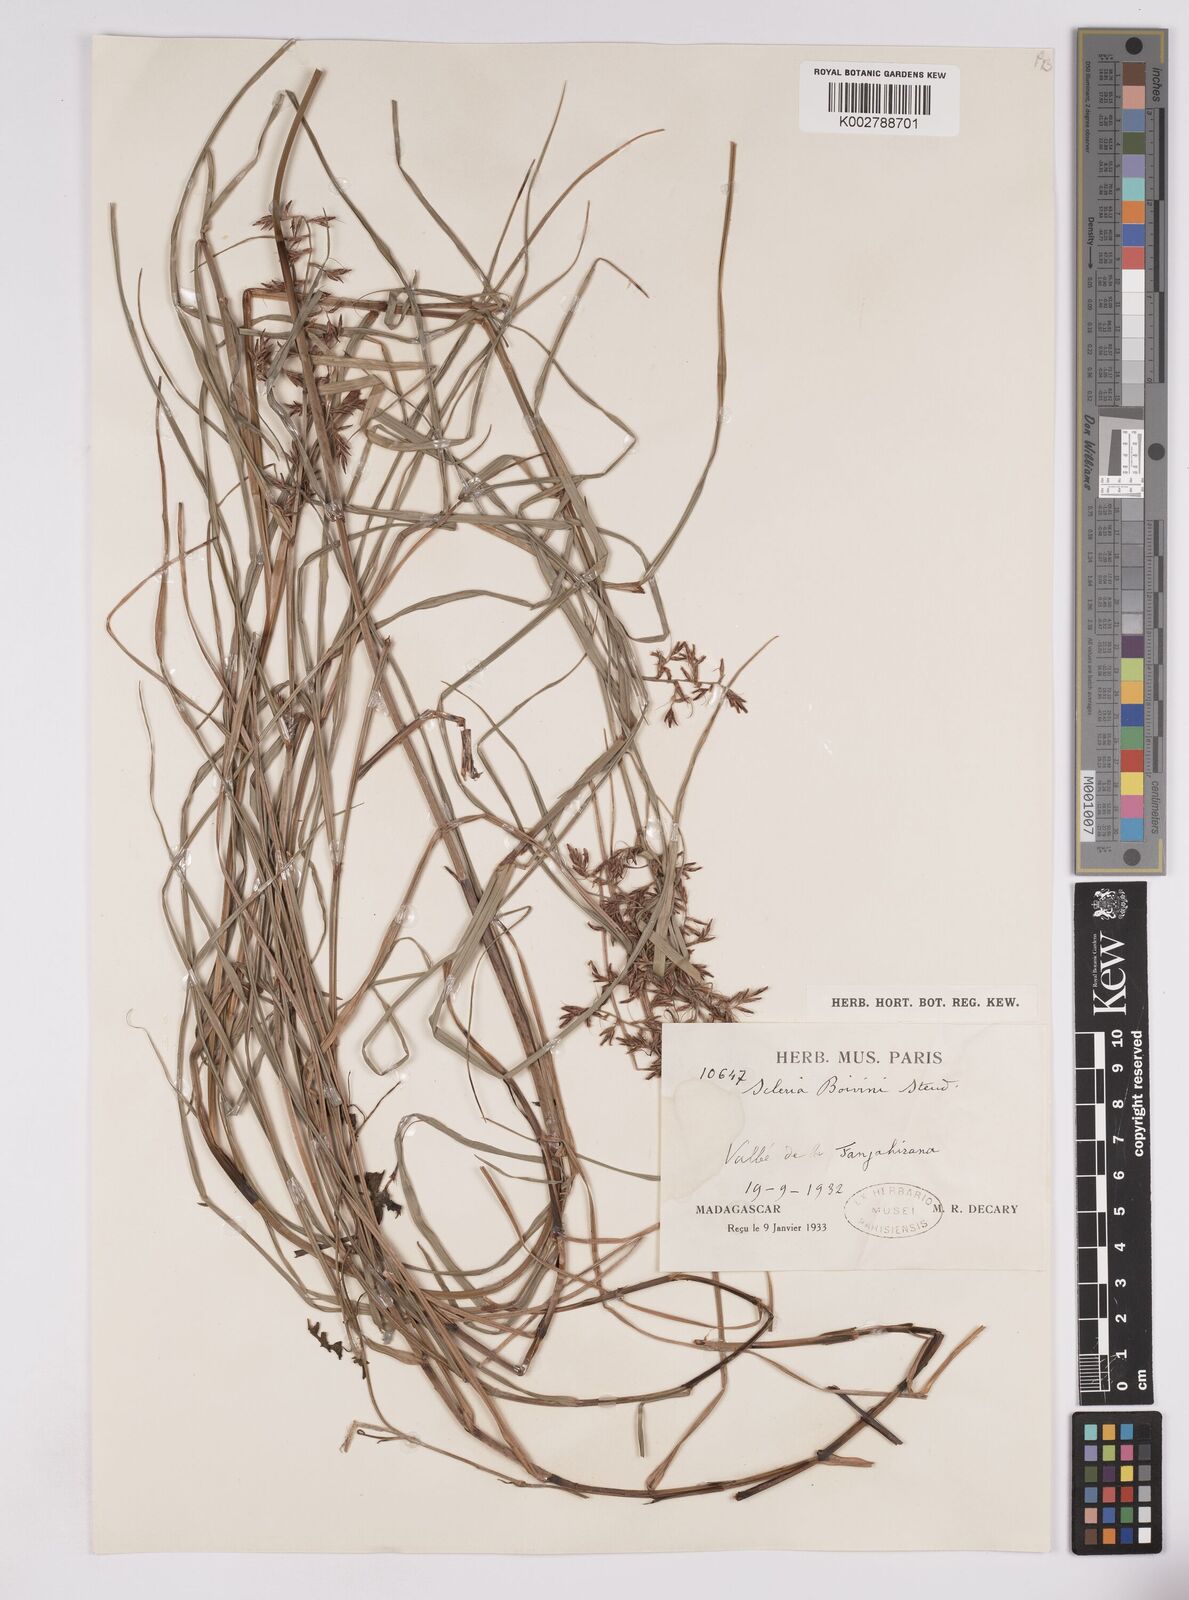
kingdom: Plantae
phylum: Tracheophyta
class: Liliopsida
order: Poales
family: Cyperaceae
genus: Scleria
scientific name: Scleria boivinii
